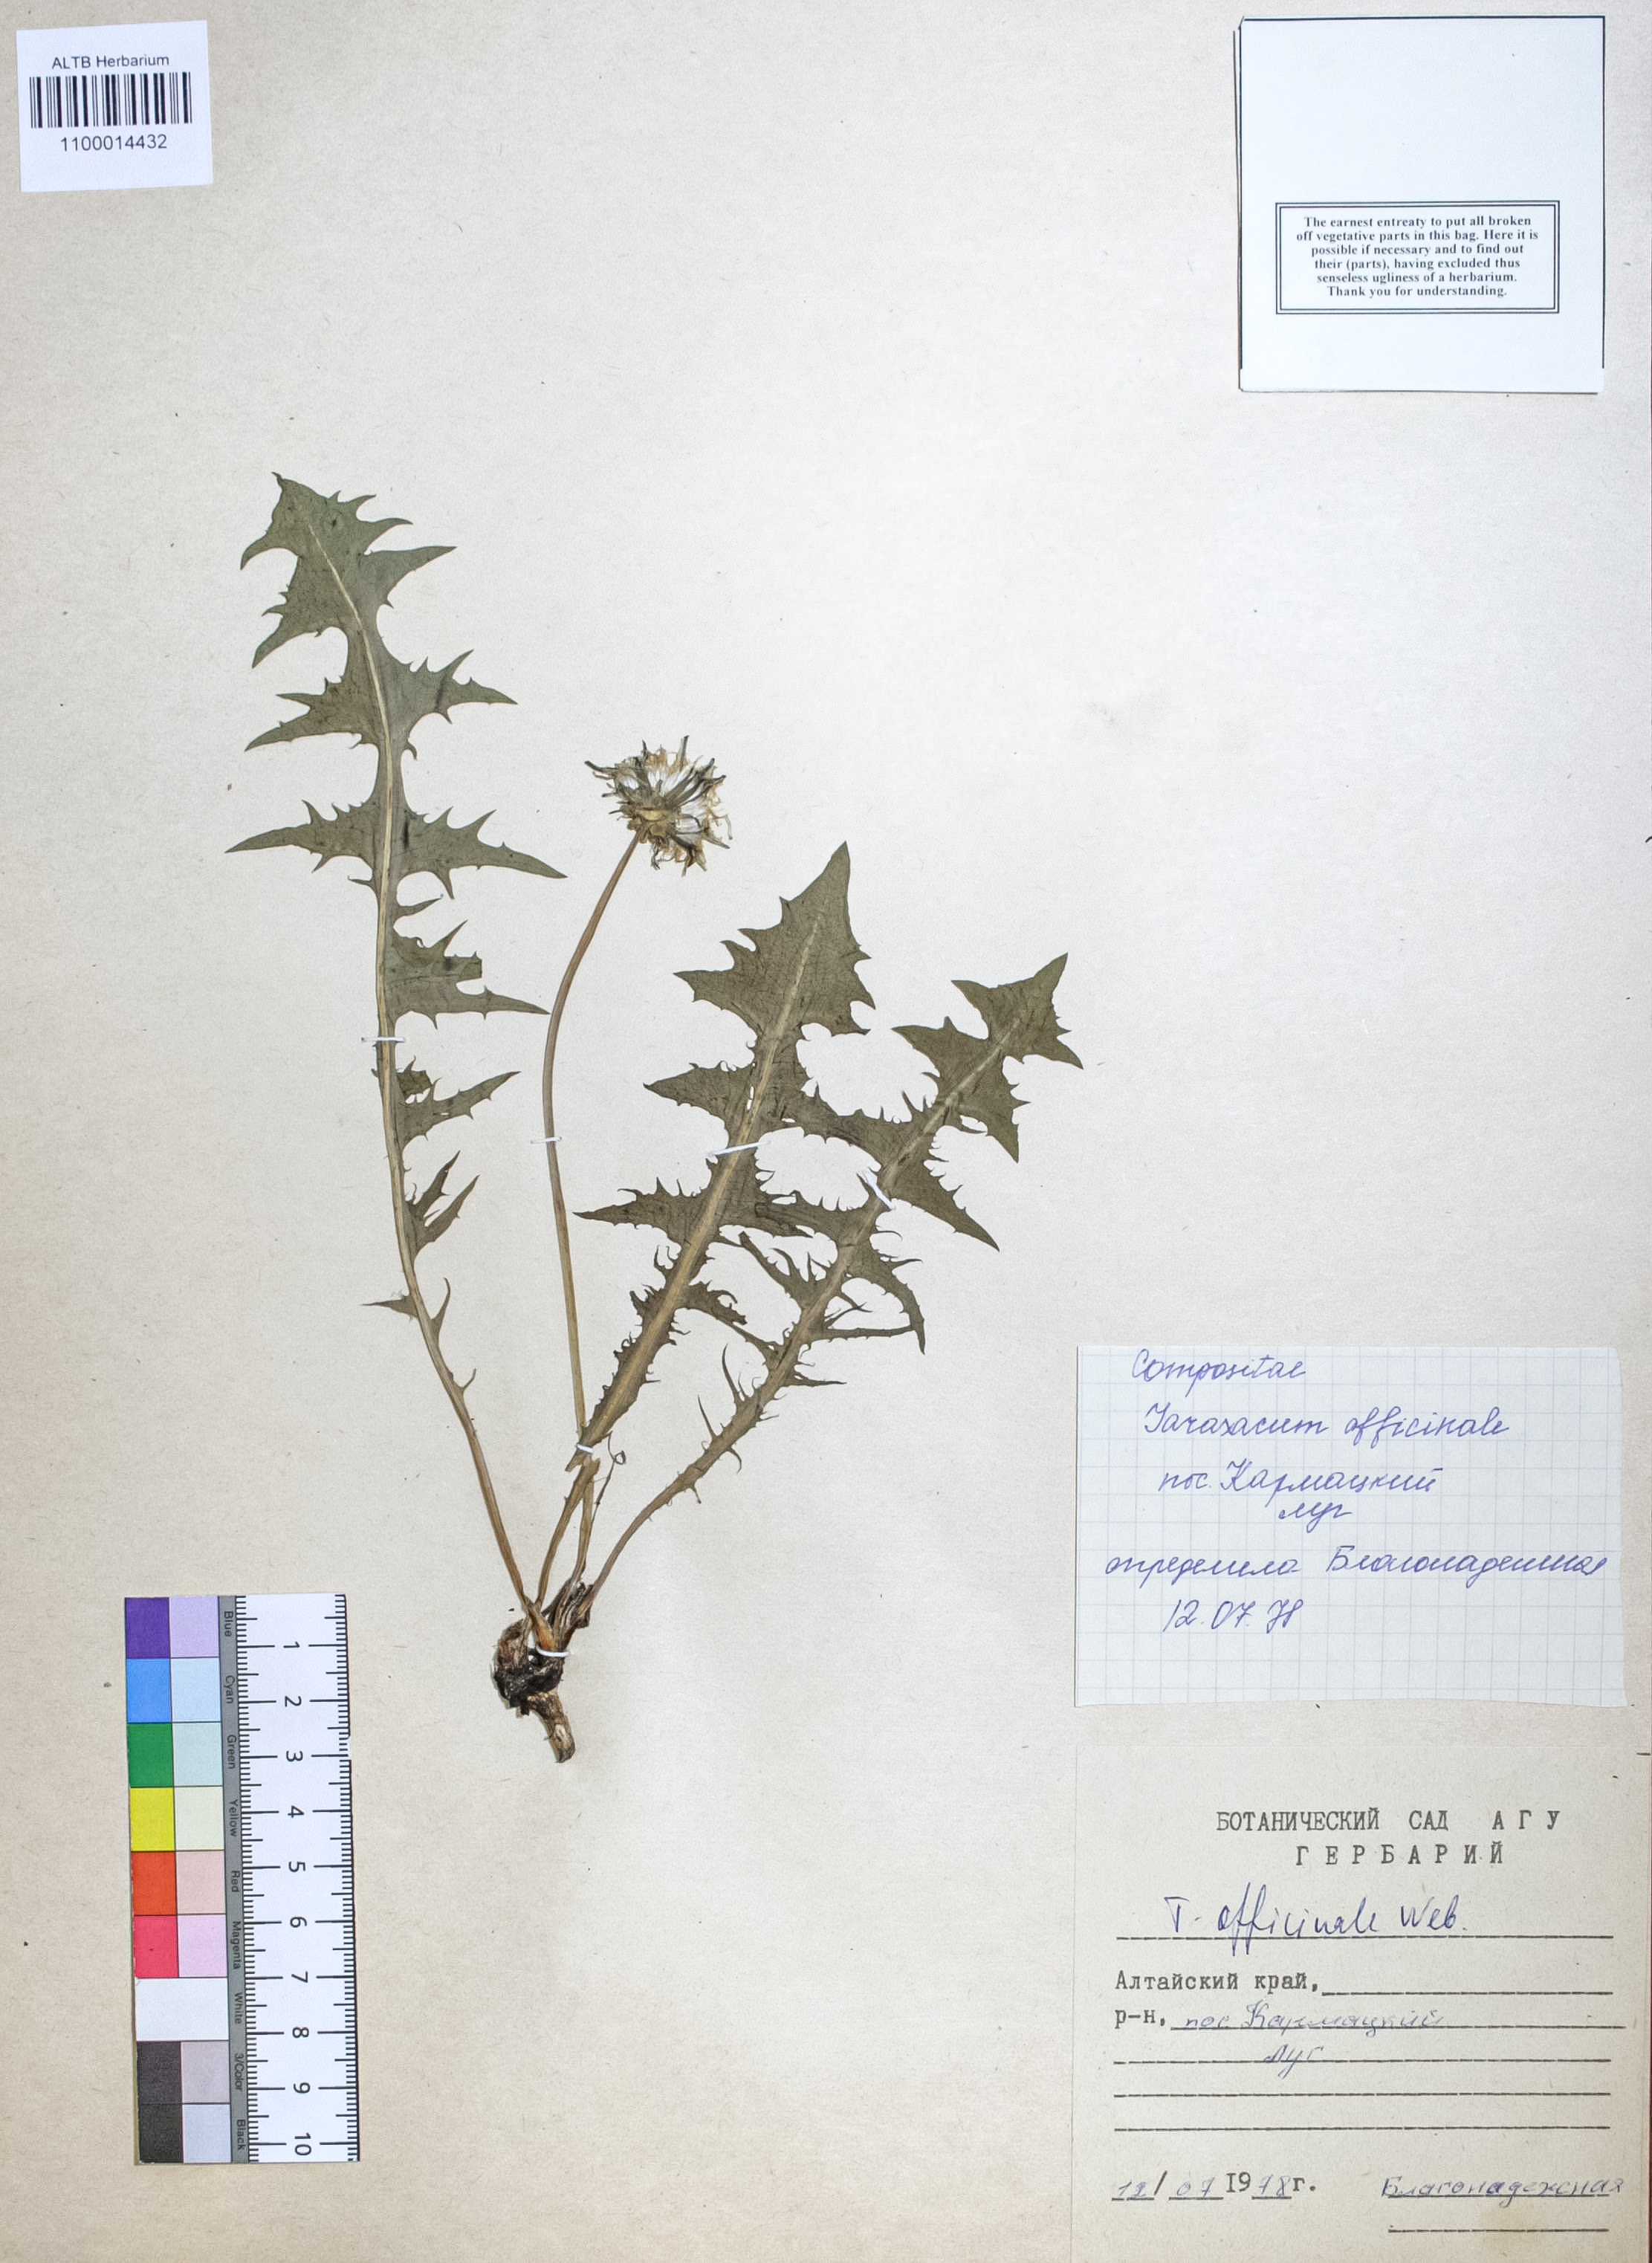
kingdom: Plantae
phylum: Tracheophyta
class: Magnoliopsida
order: Asterales
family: Asteraceae
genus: Taraxacum
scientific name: Taraxacum officinale
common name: Common dandelion
